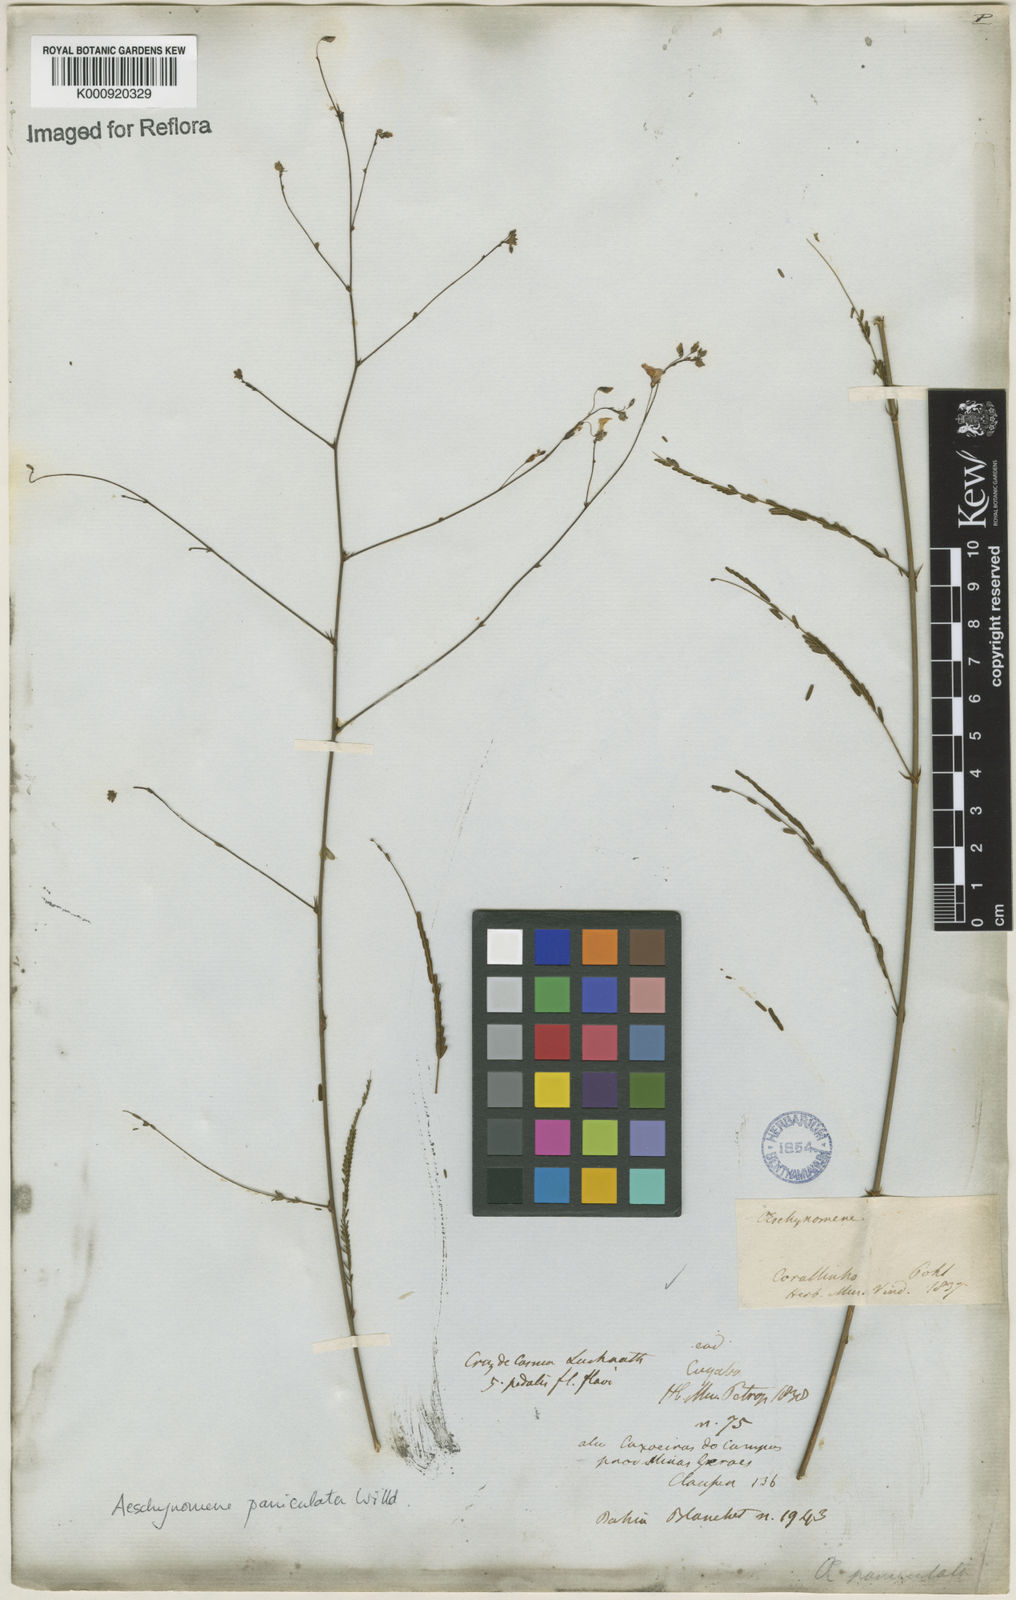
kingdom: Plantae
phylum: Tracheophyta
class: Magnoliopsida
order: Fabales
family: Fabaceae
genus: Ctenodon
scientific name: Ctenodon paniculatus
